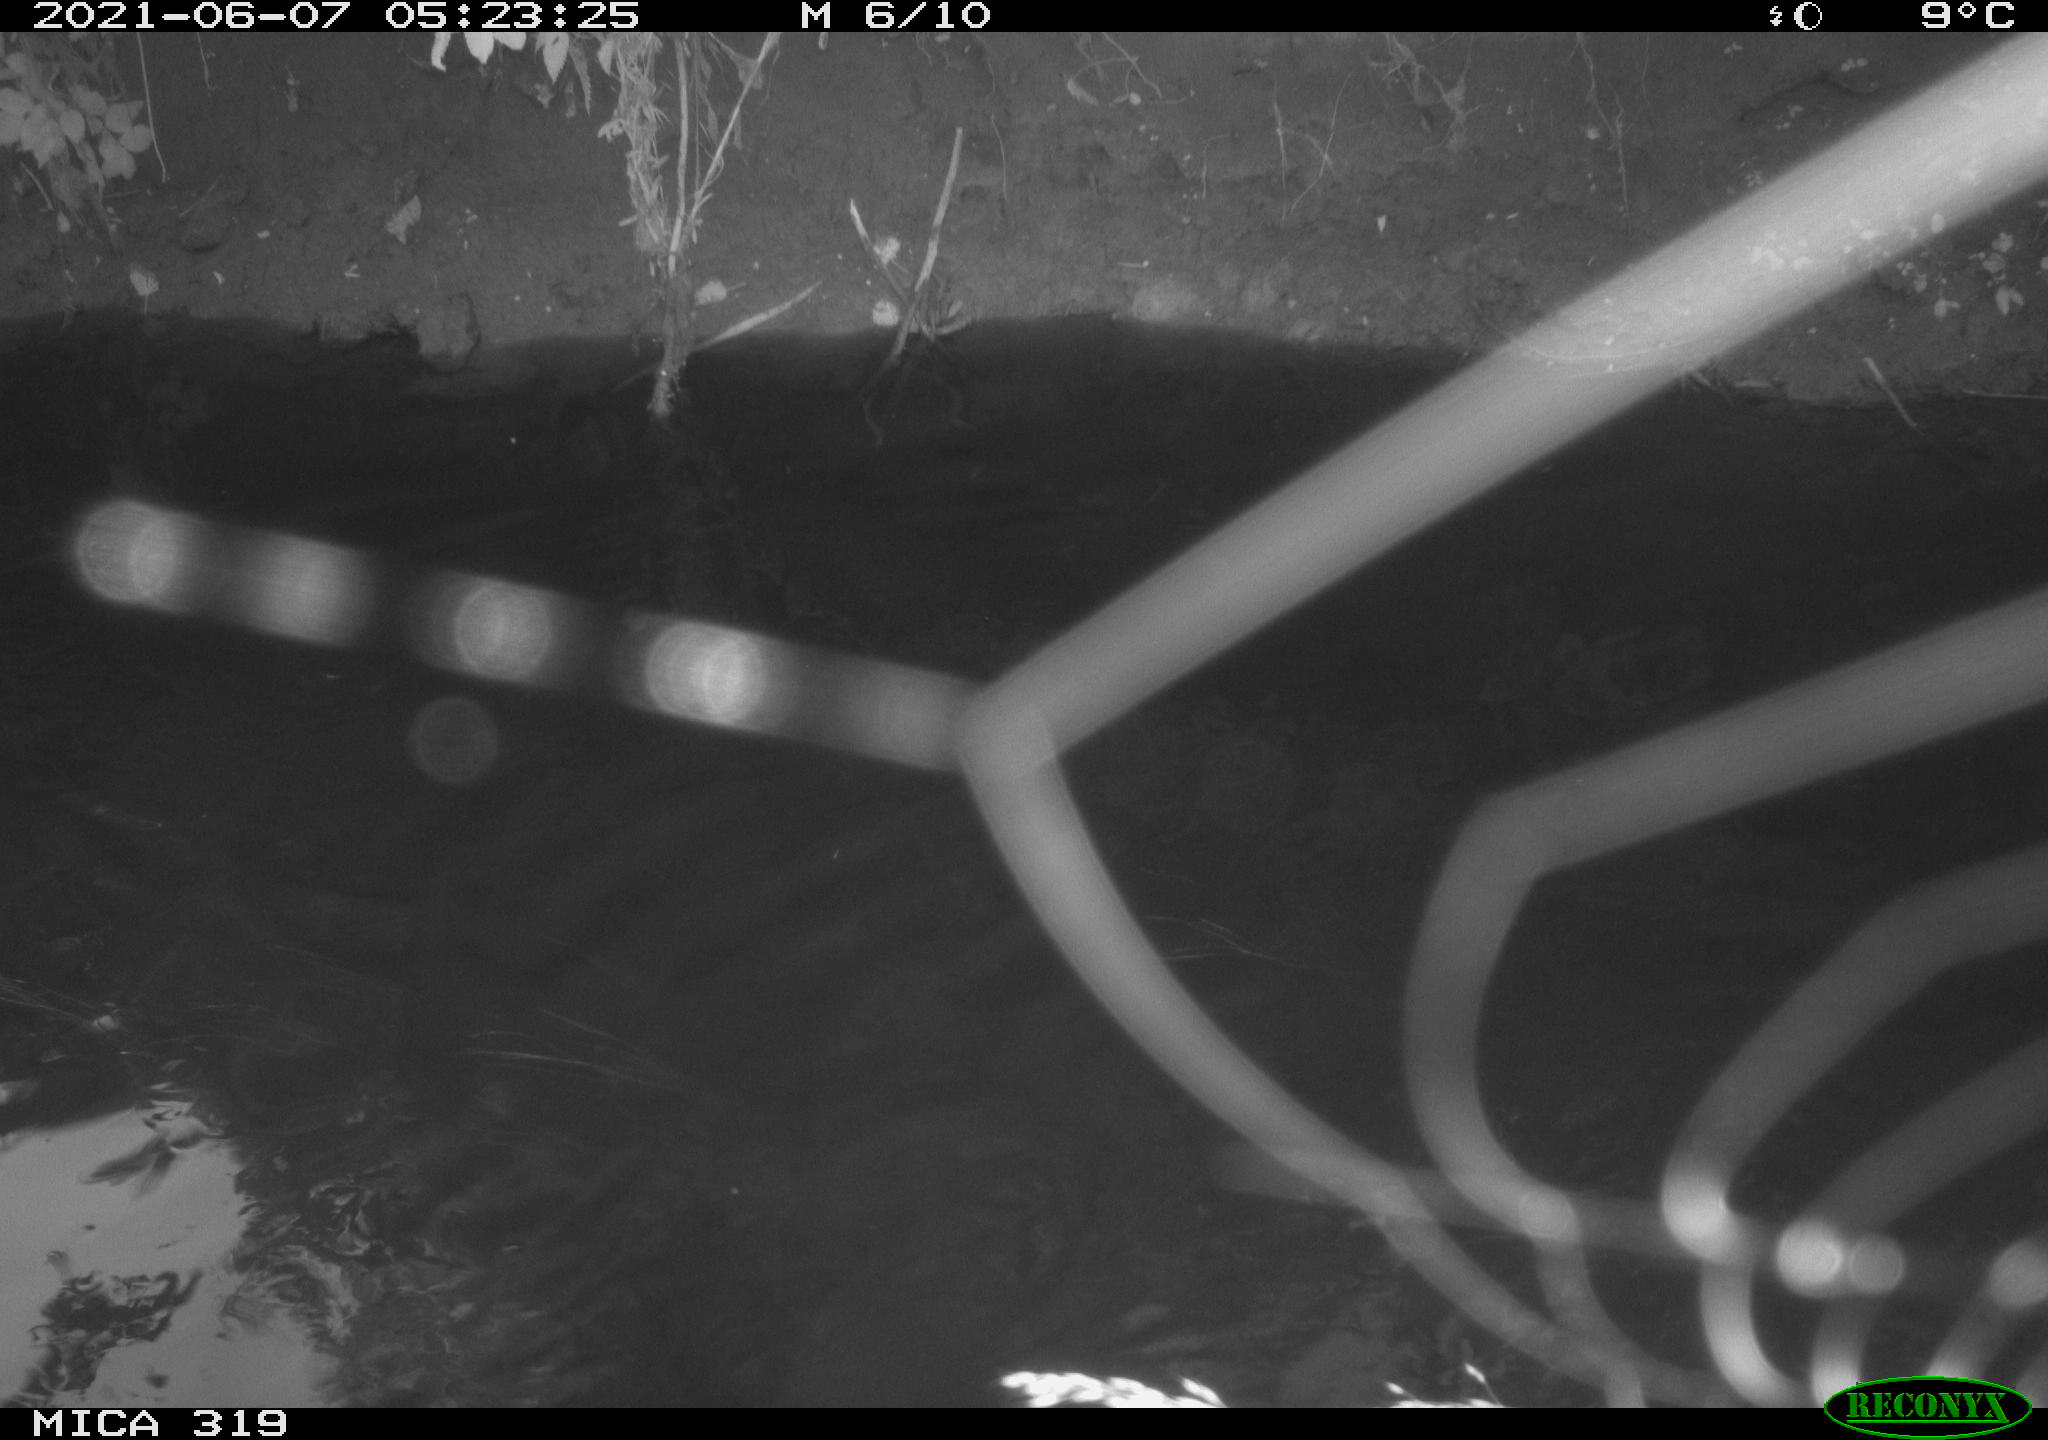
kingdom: Animalia
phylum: Chordata
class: Aves
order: Anseriformes
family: Anatidae
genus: Anas
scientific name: Anas platyrhynchos
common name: Mallard
